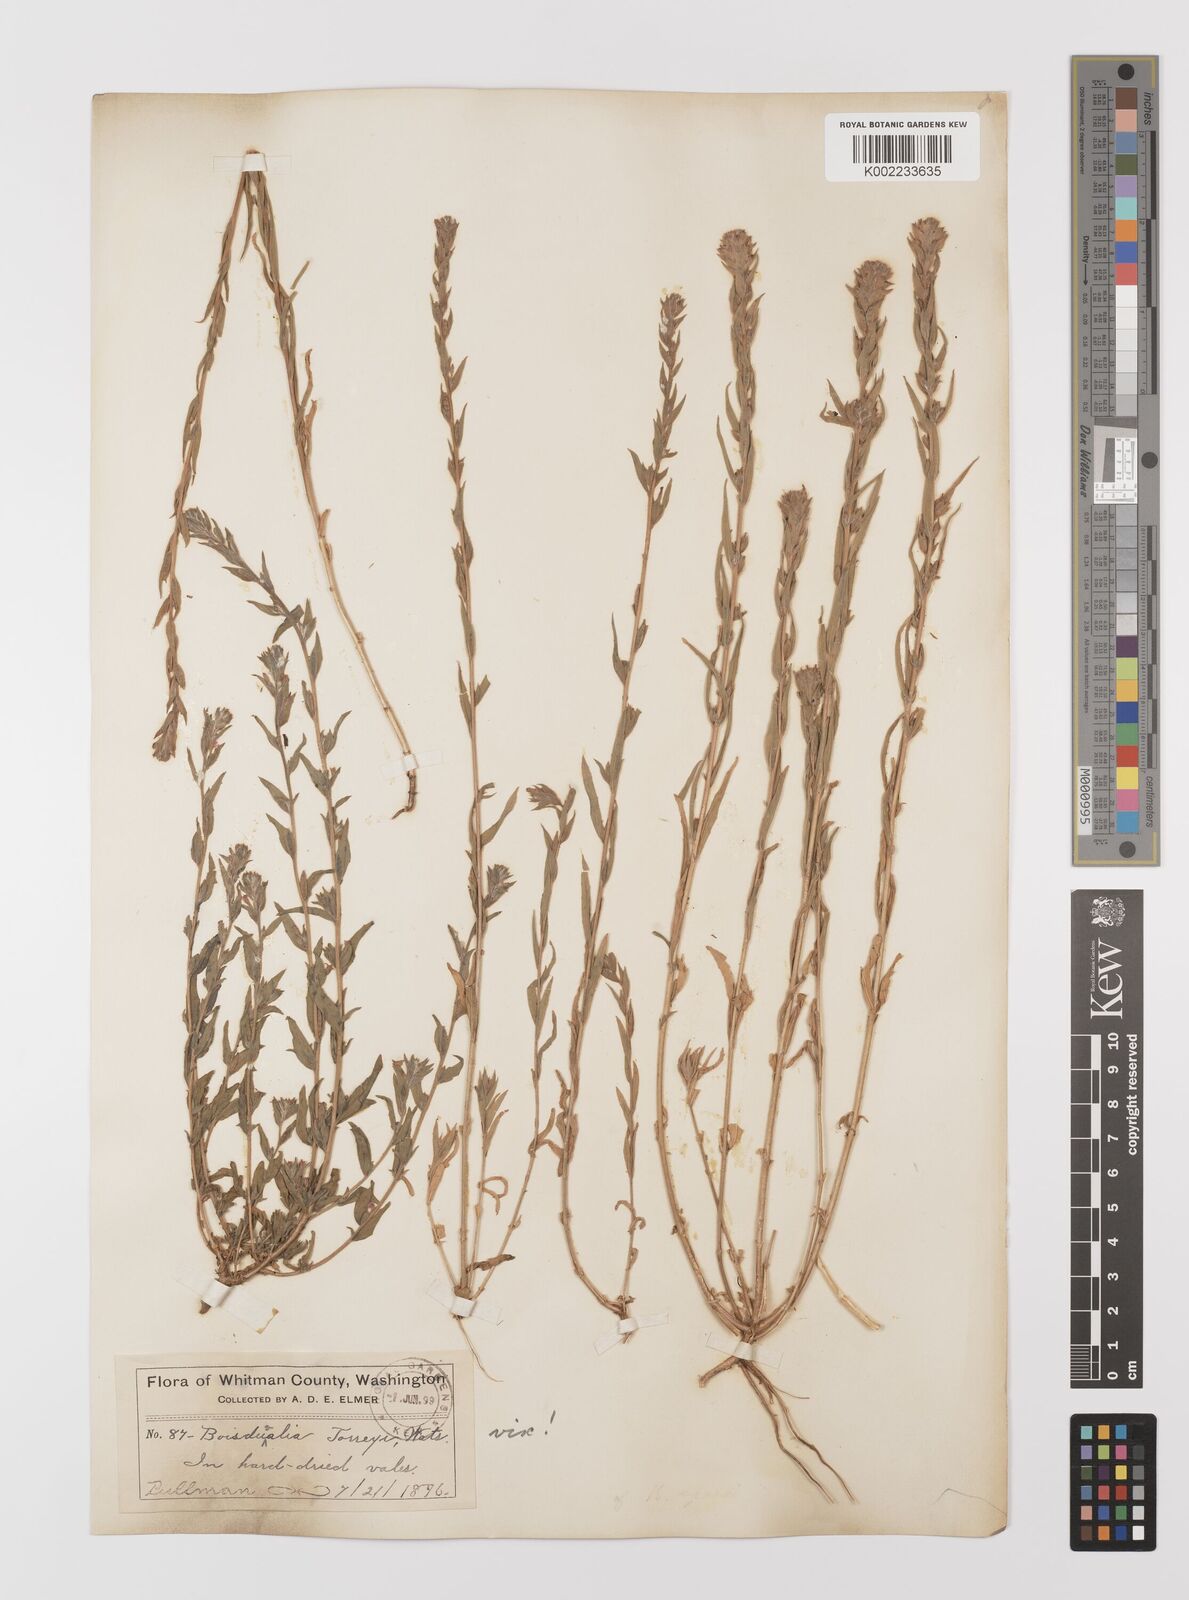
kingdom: Plantae
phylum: Tracheophyta
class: Magnoliopsida
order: Myrtales
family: Onagraceae
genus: Epilobium
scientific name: Epilobium densiflorum
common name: Dense spike-primrose
